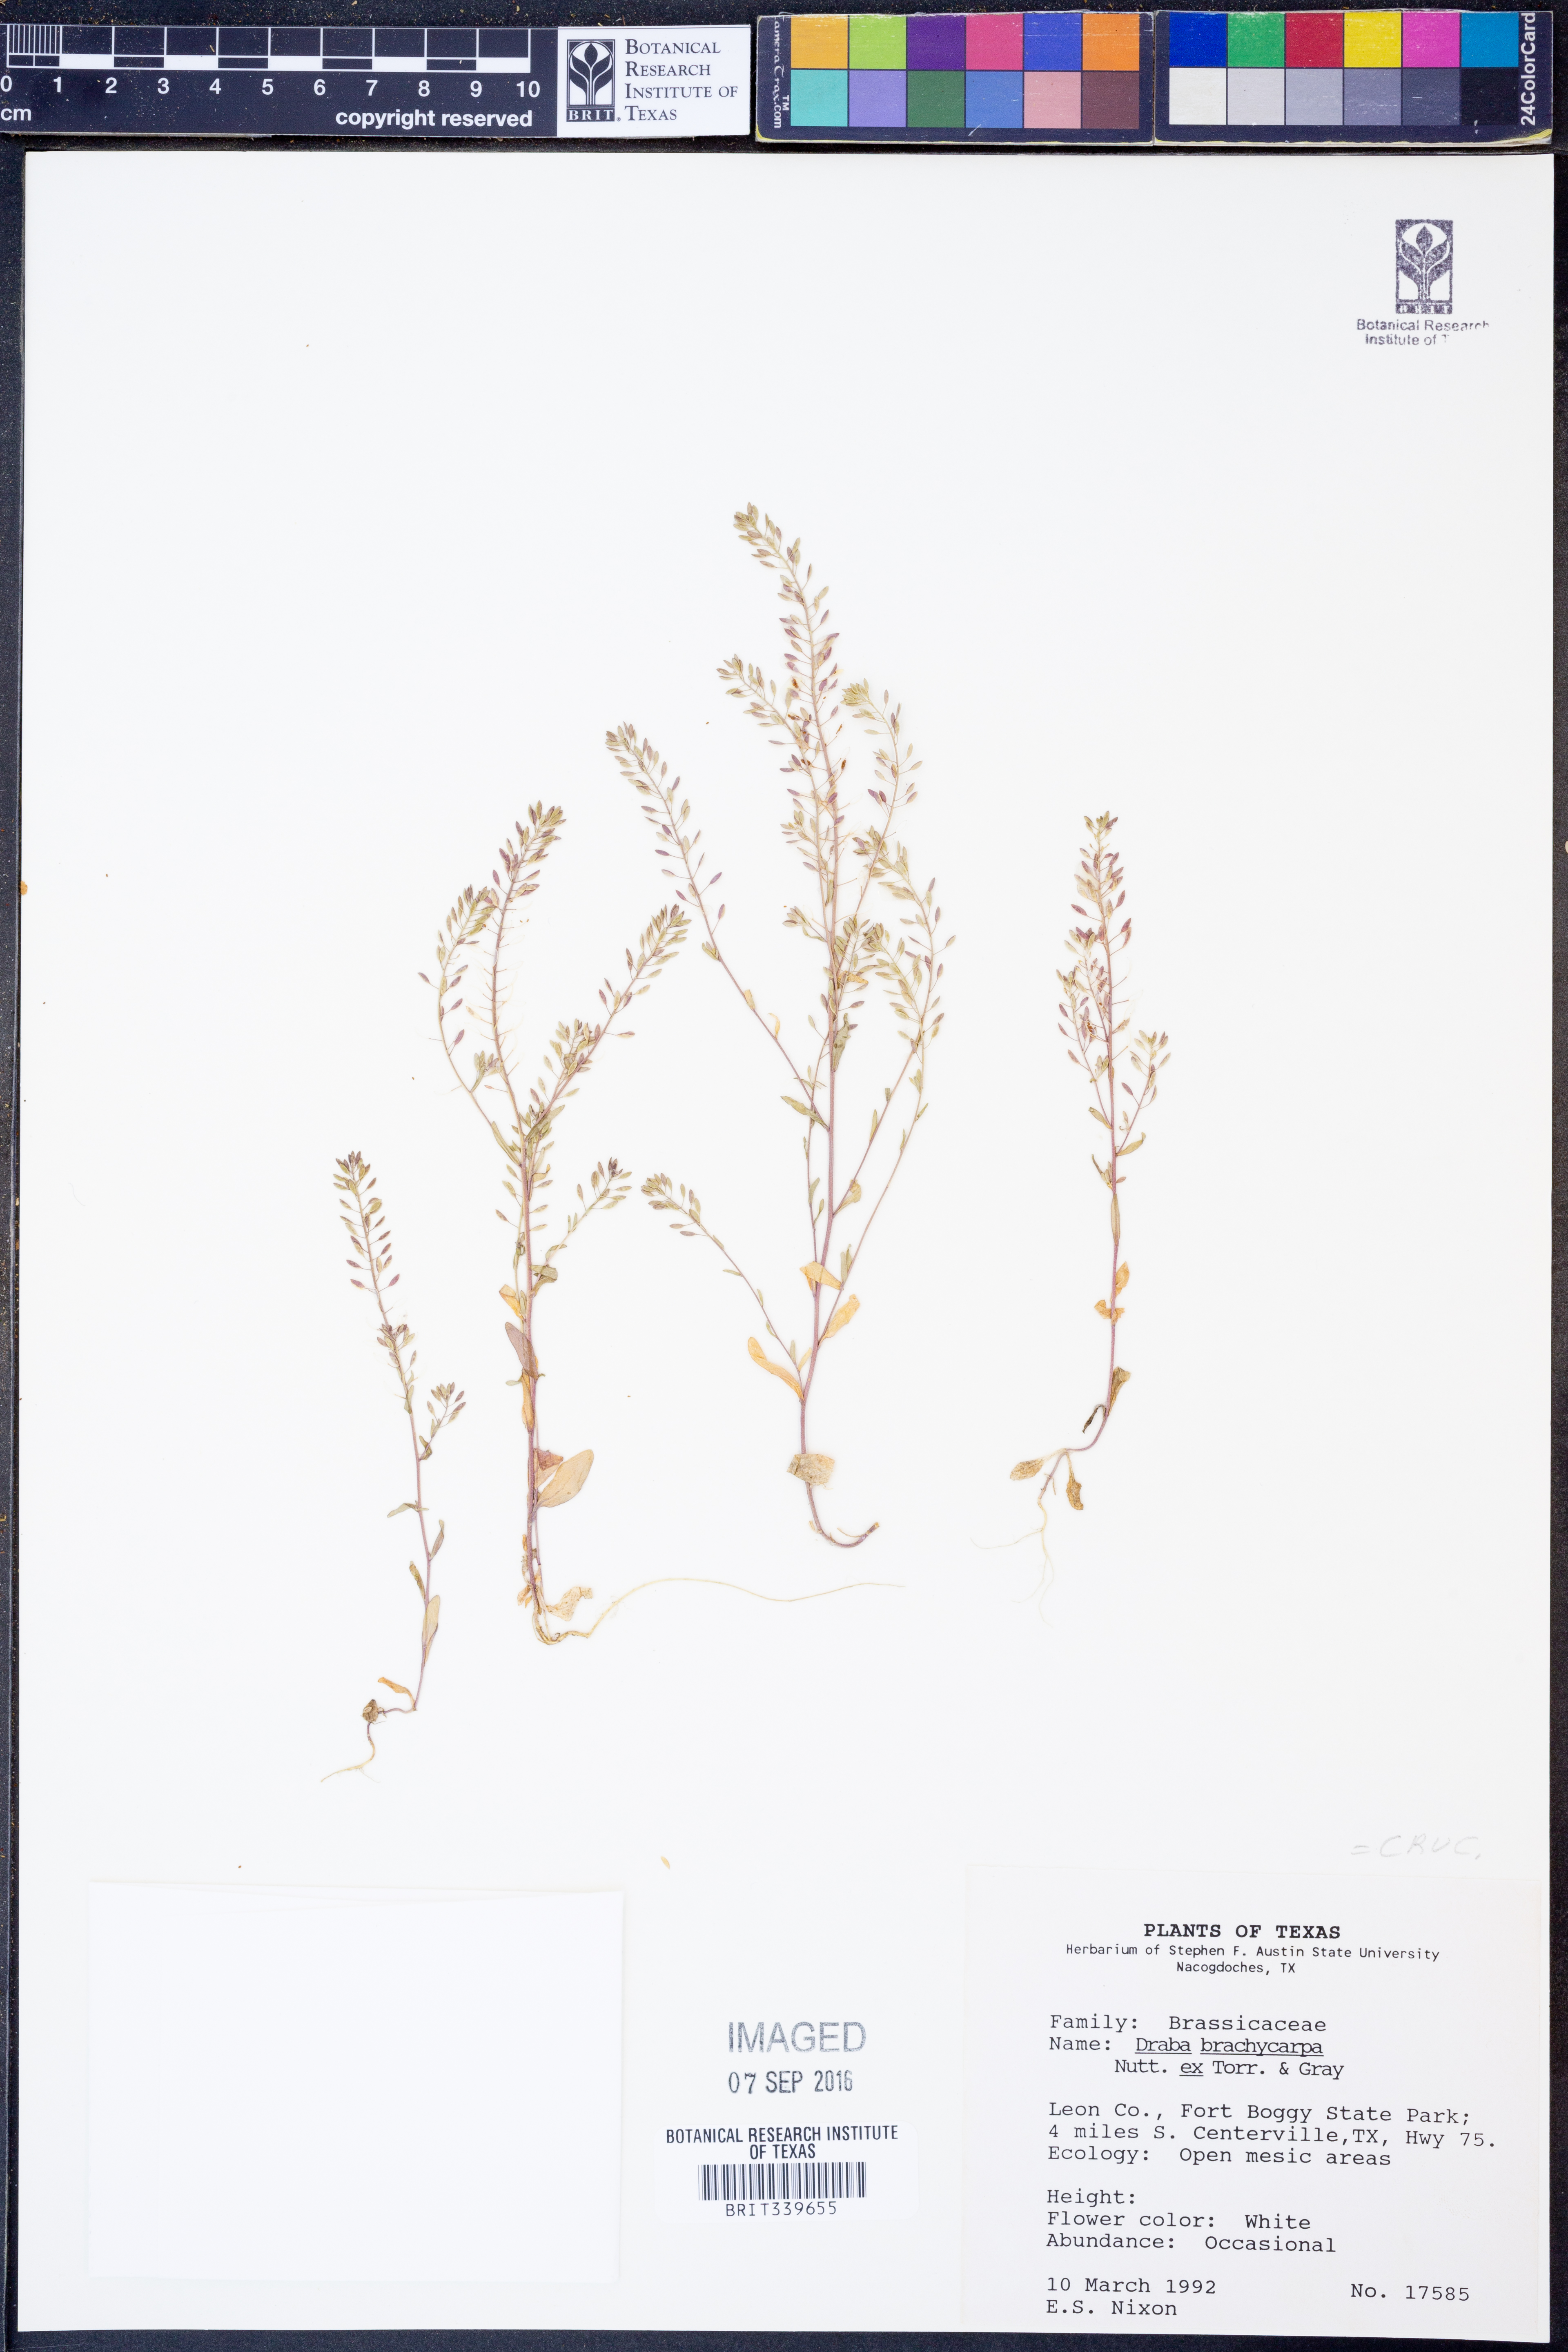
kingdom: Plantae
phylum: Tracheophyta
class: Magnoliopsida
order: Brassicales
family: Brassicaceae
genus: Abdra
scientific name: Abdra brachycarpa
